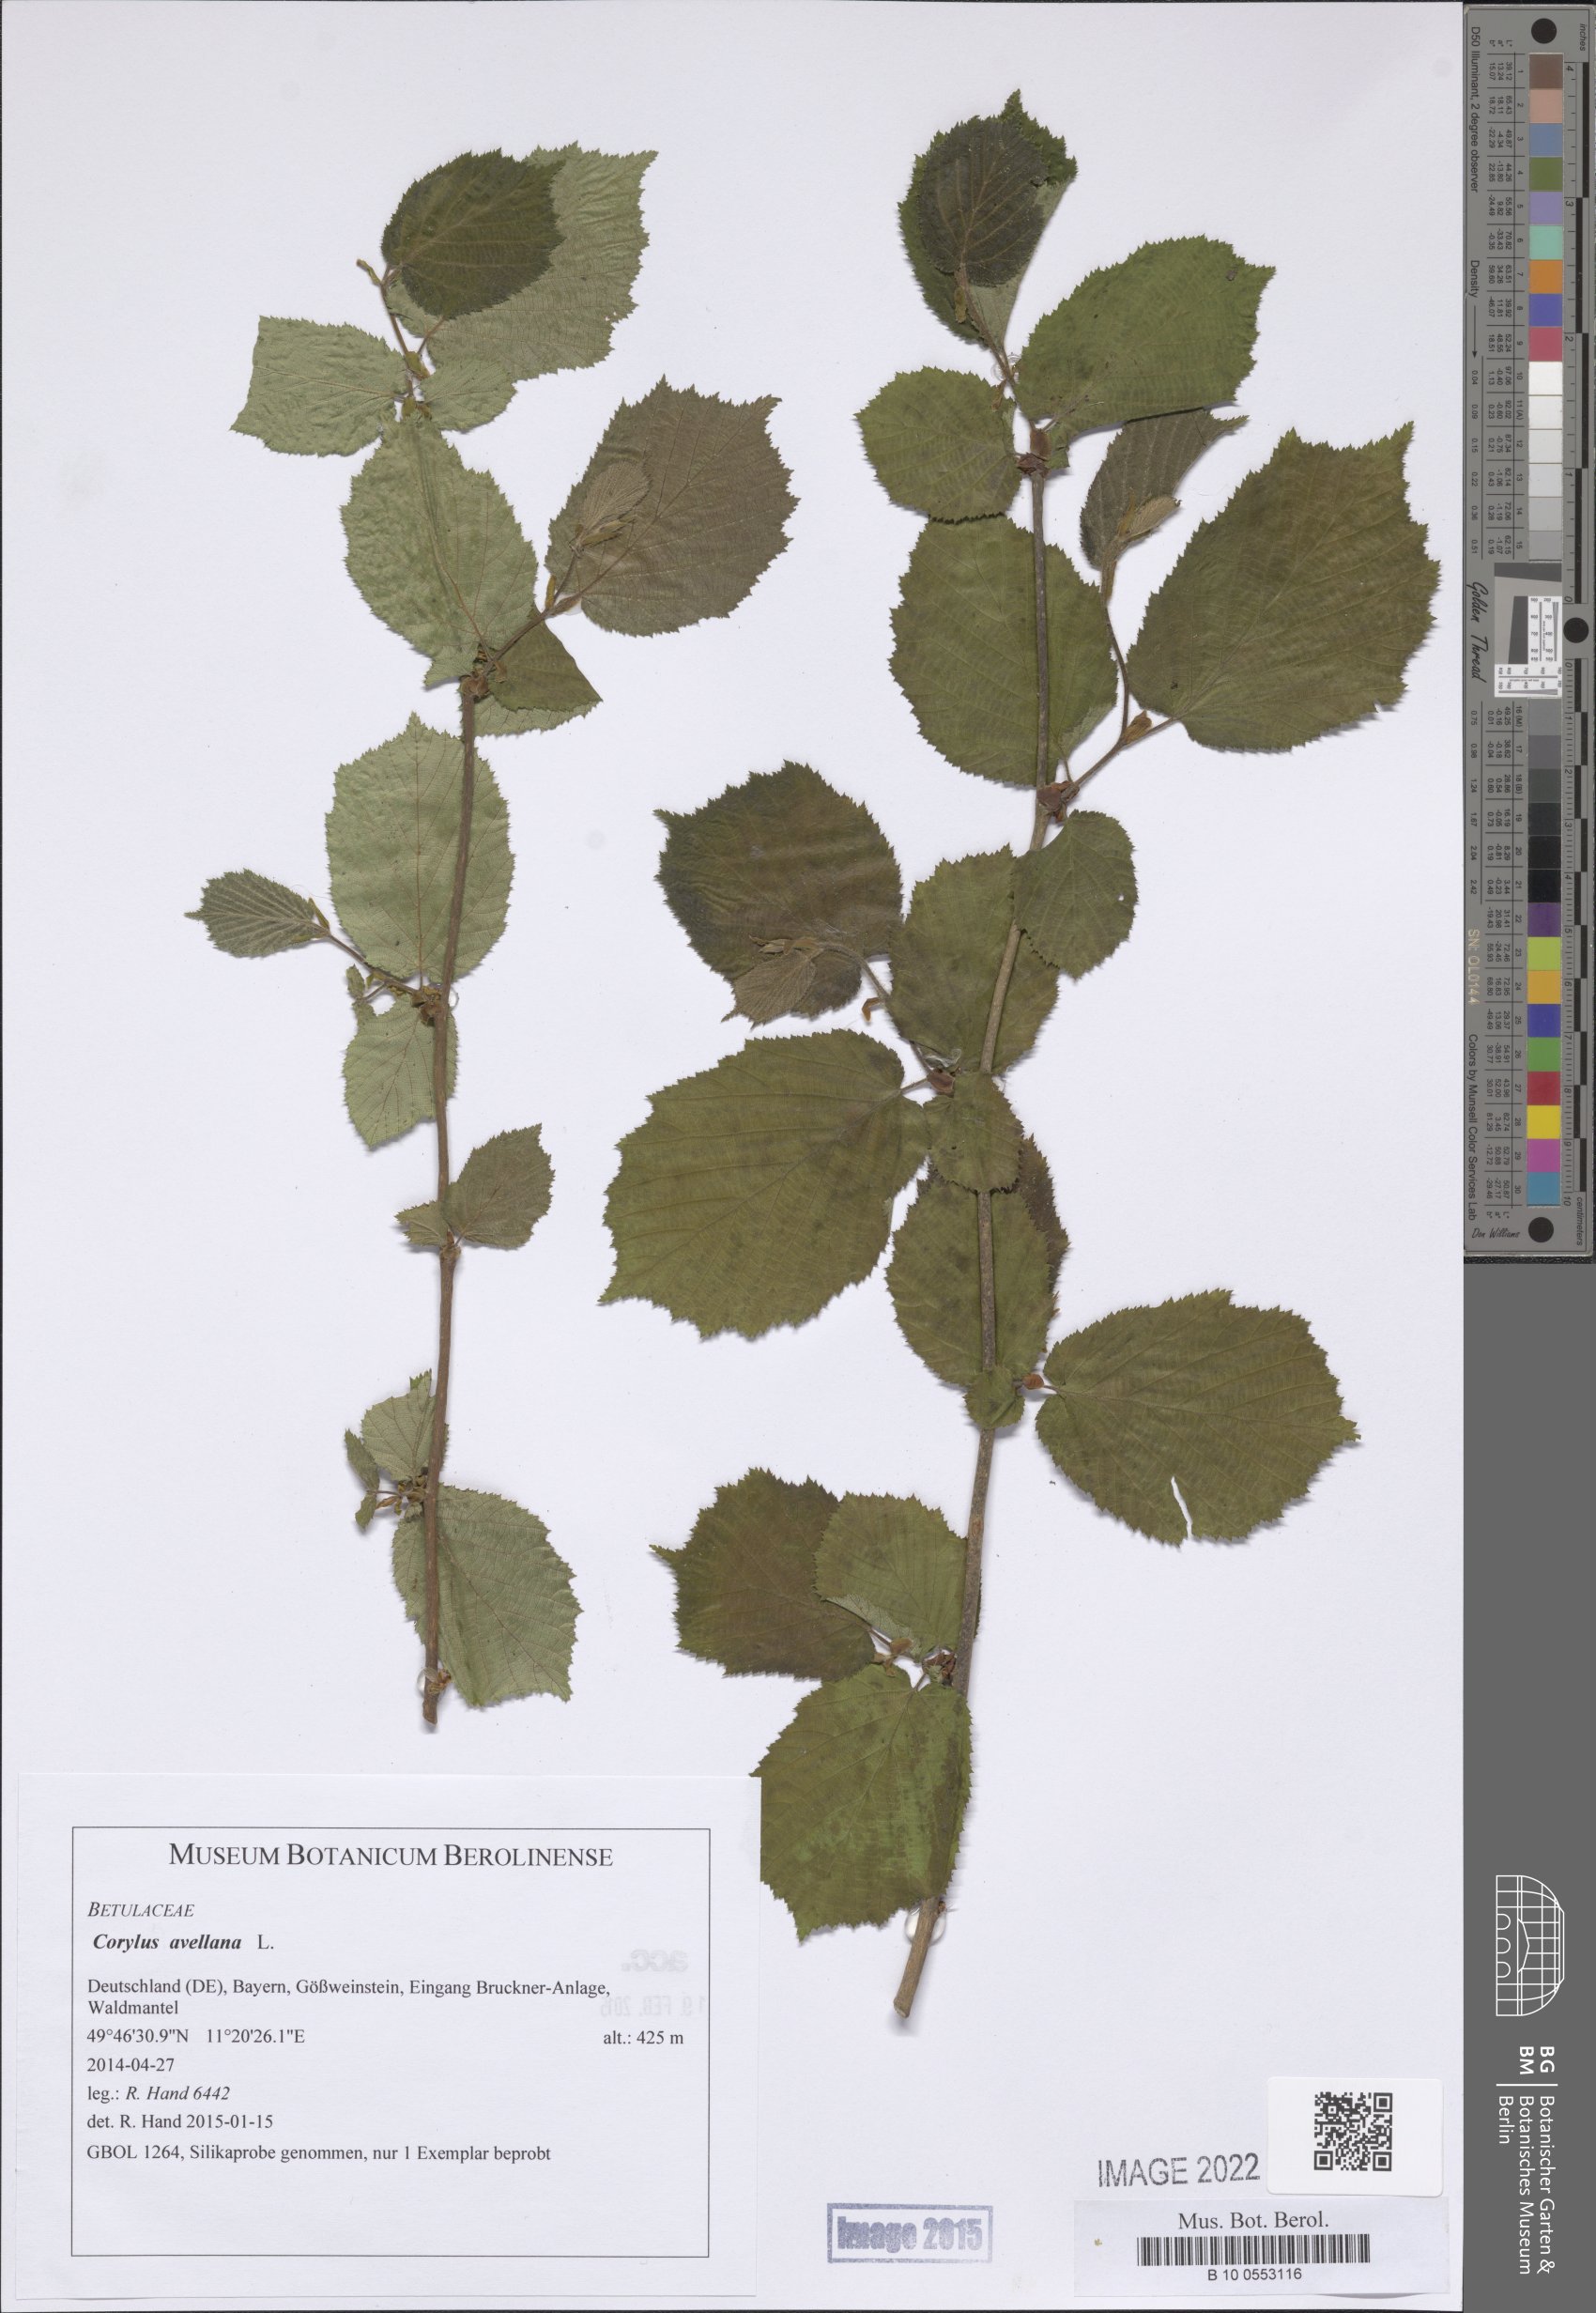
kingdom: Plantae
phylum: Tracheophyta
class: Magnoliopsida
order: Fagales
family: Betulaceae
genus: Corylus
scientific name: Corylus avellana
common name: European hazel
